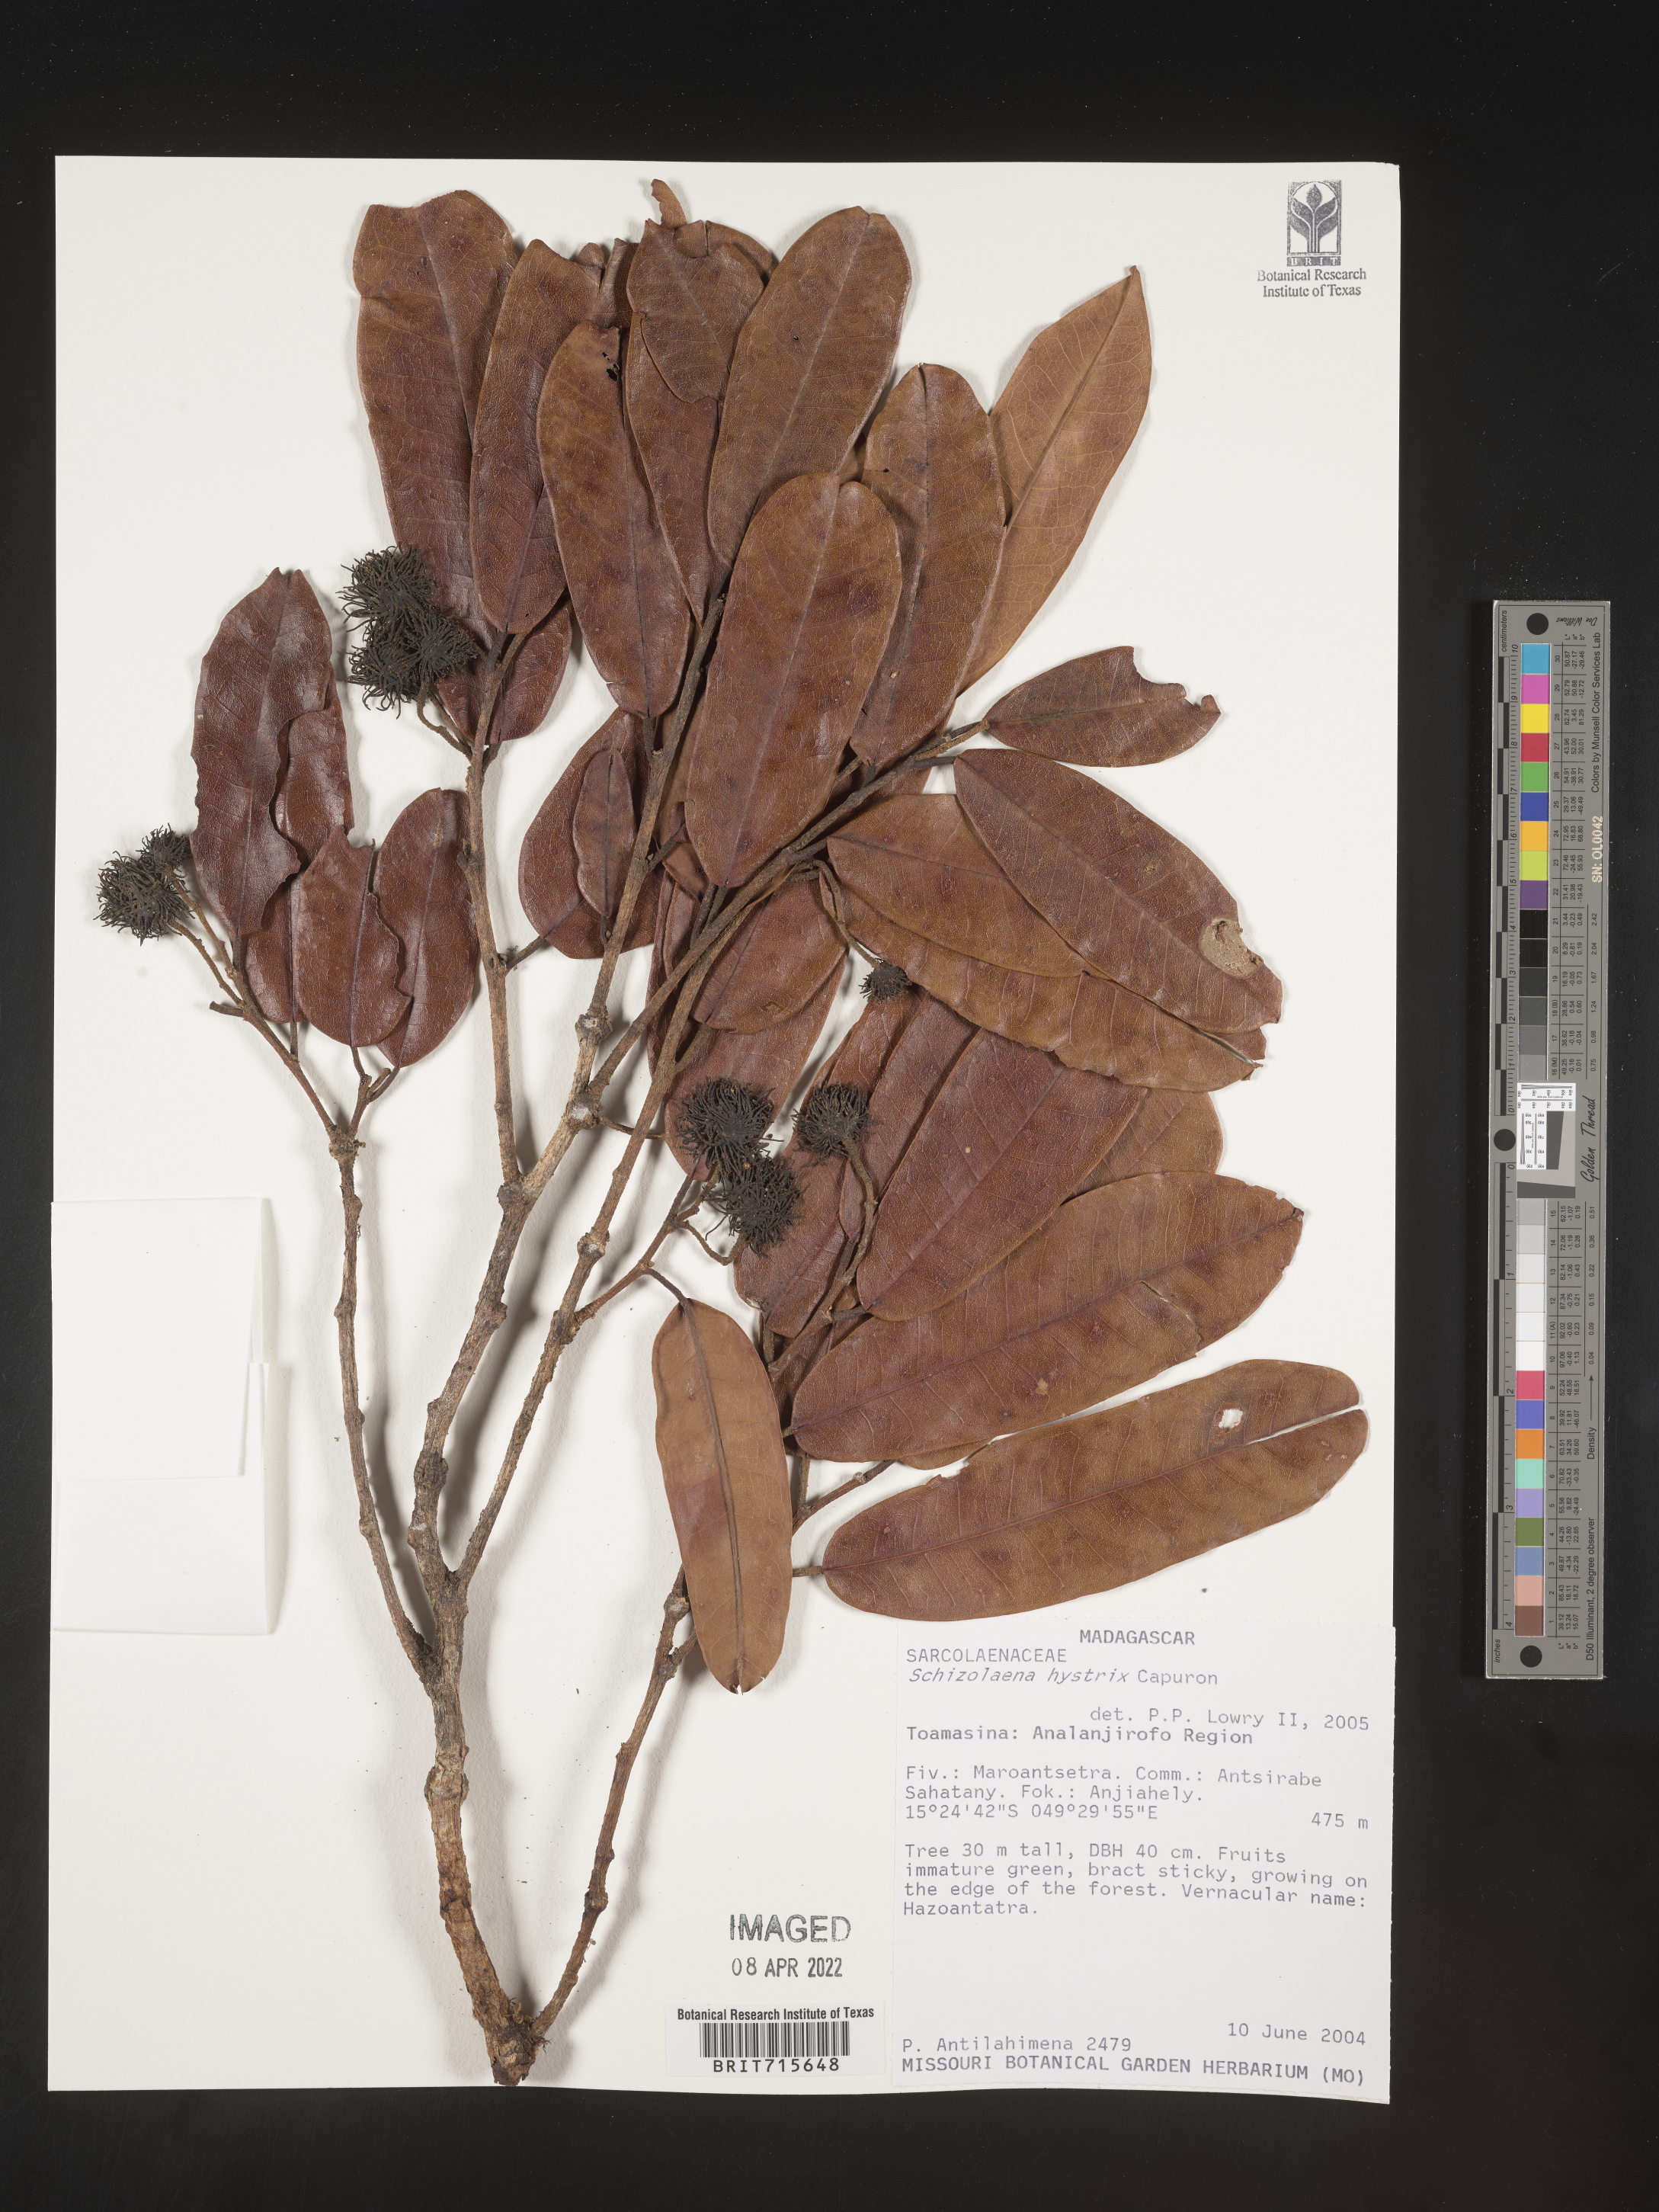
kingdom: Plantae
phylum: Tracheophyta
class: Magnoliopsida
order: Malvales
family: Sarcolaenaceae
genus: Schizolaena
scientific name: Schizolaena
